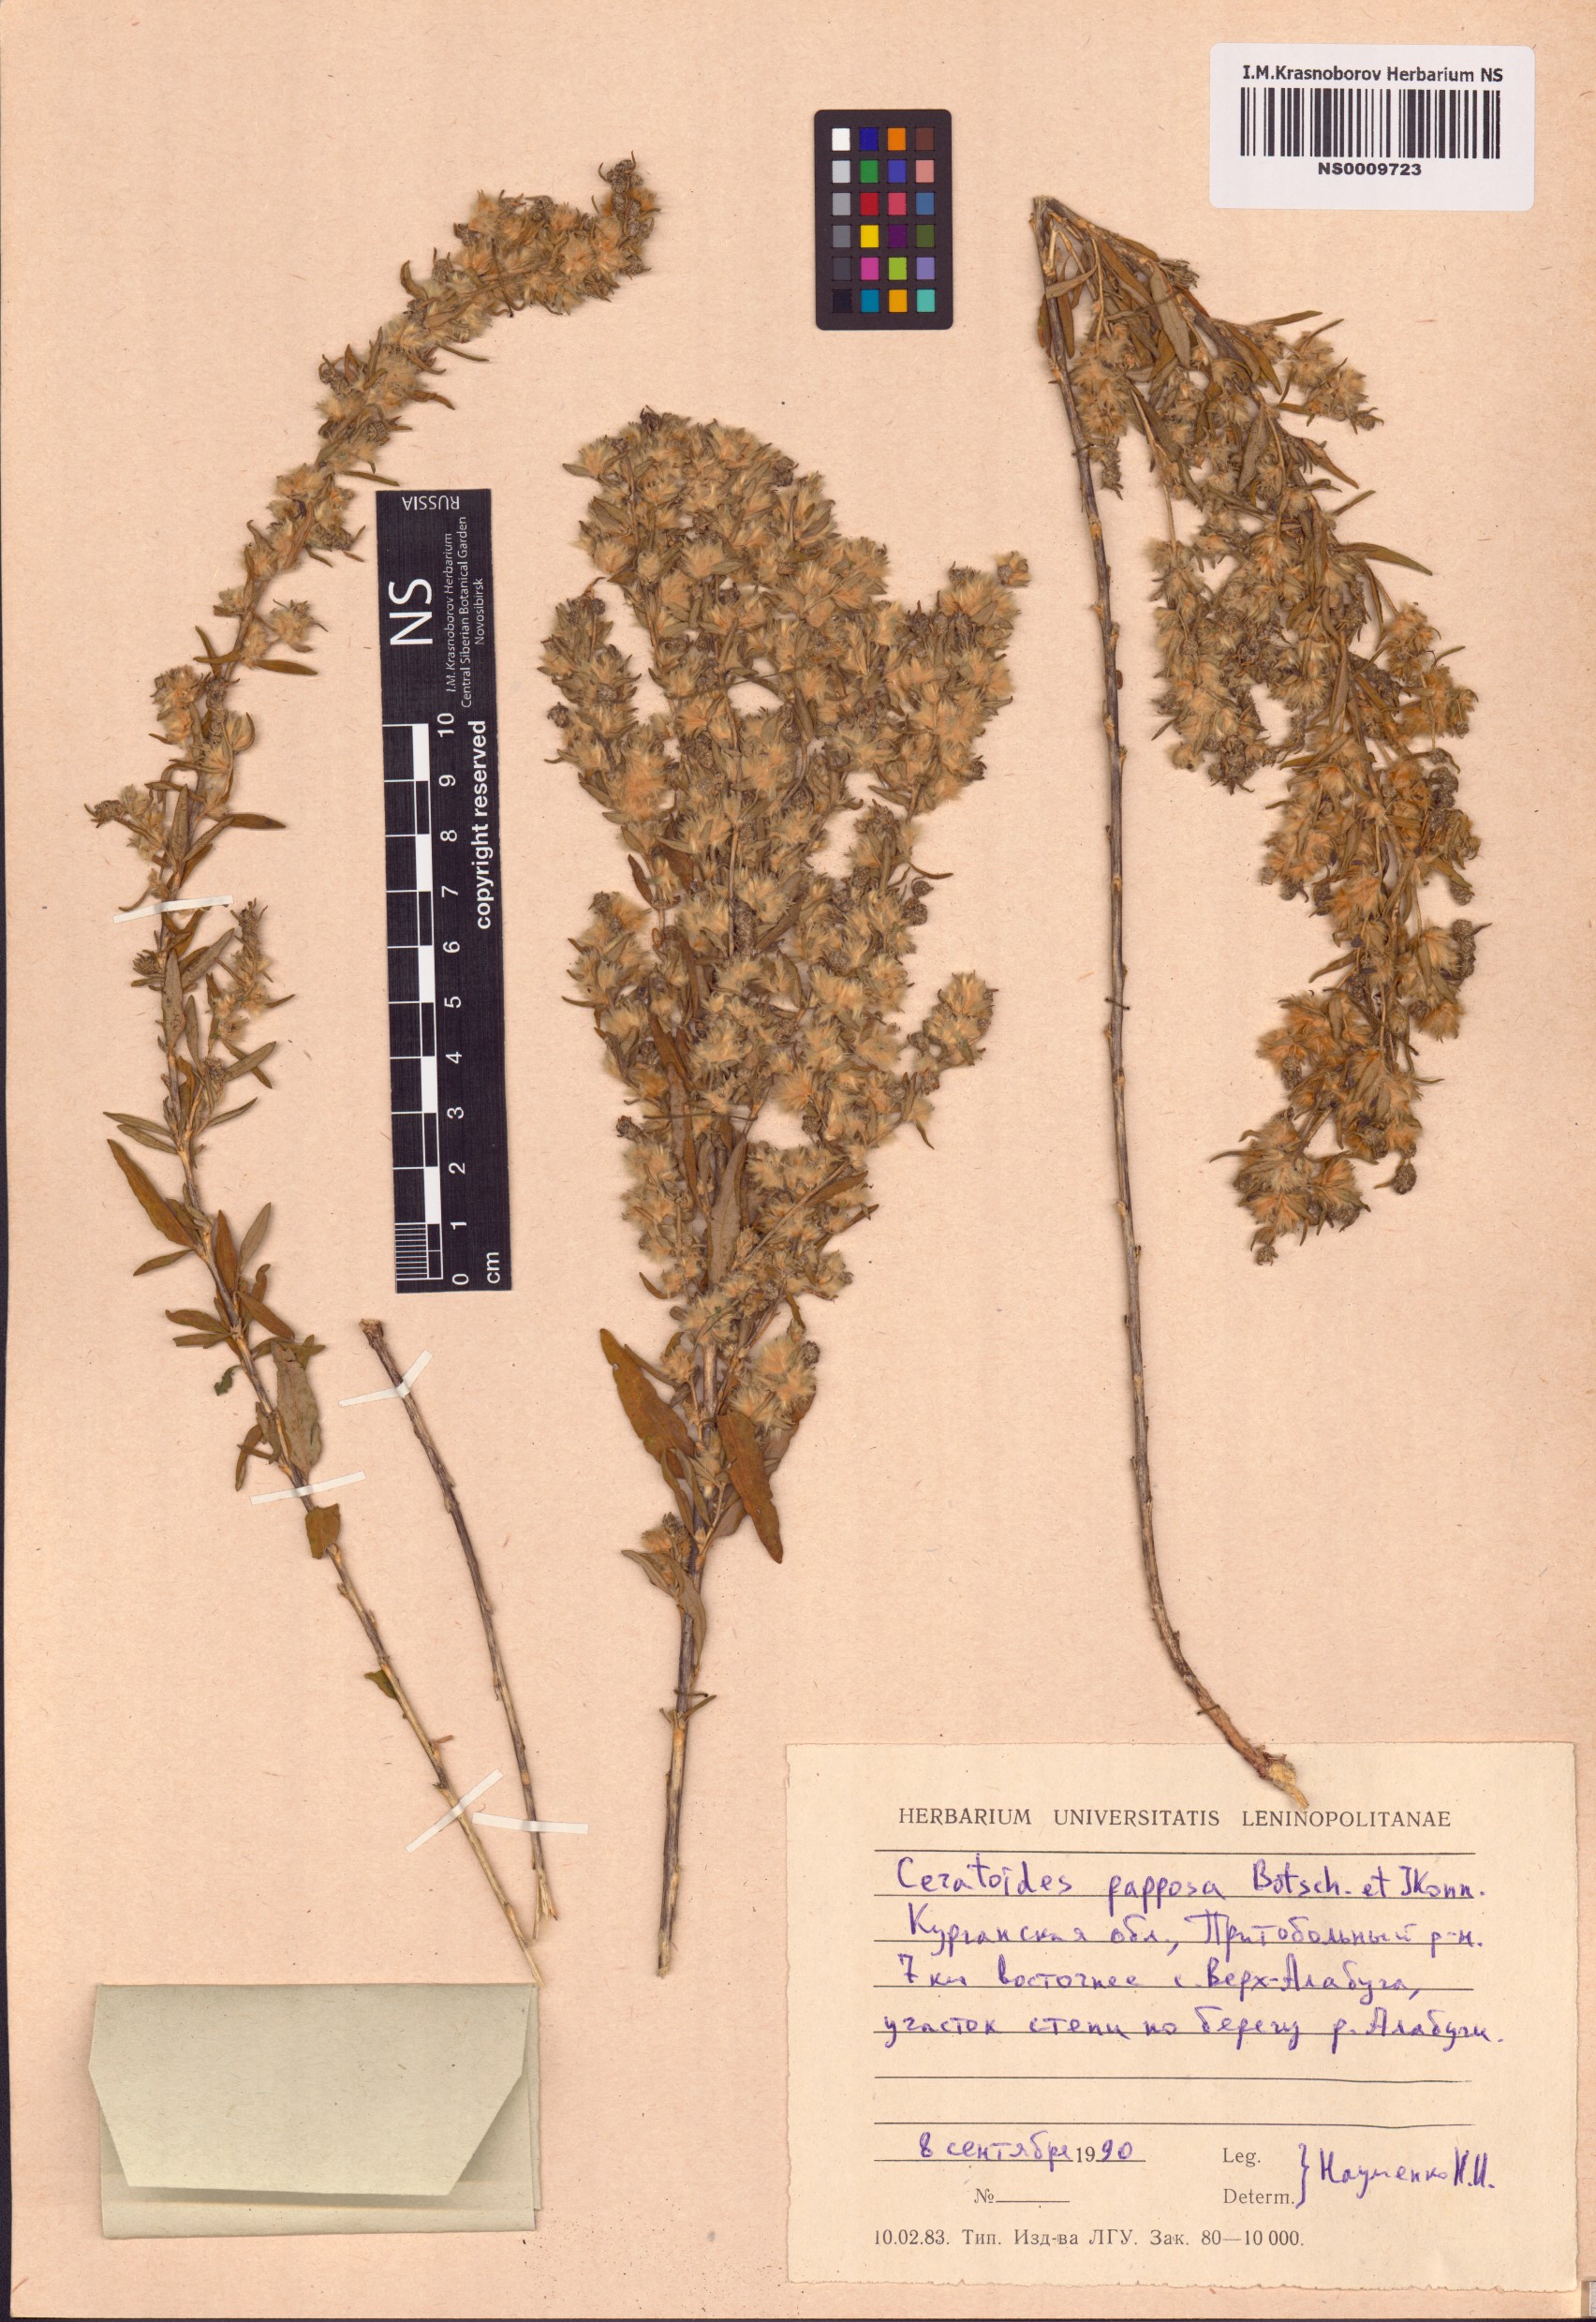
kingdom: Plantae
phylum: Tracheophyta
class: Magnoliopsida
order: Caryophyllales
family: Amaranthaceae
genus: Krascheninnikovia
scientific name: Krascheninnikovia ceratoides
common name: Pamirian winterfat
